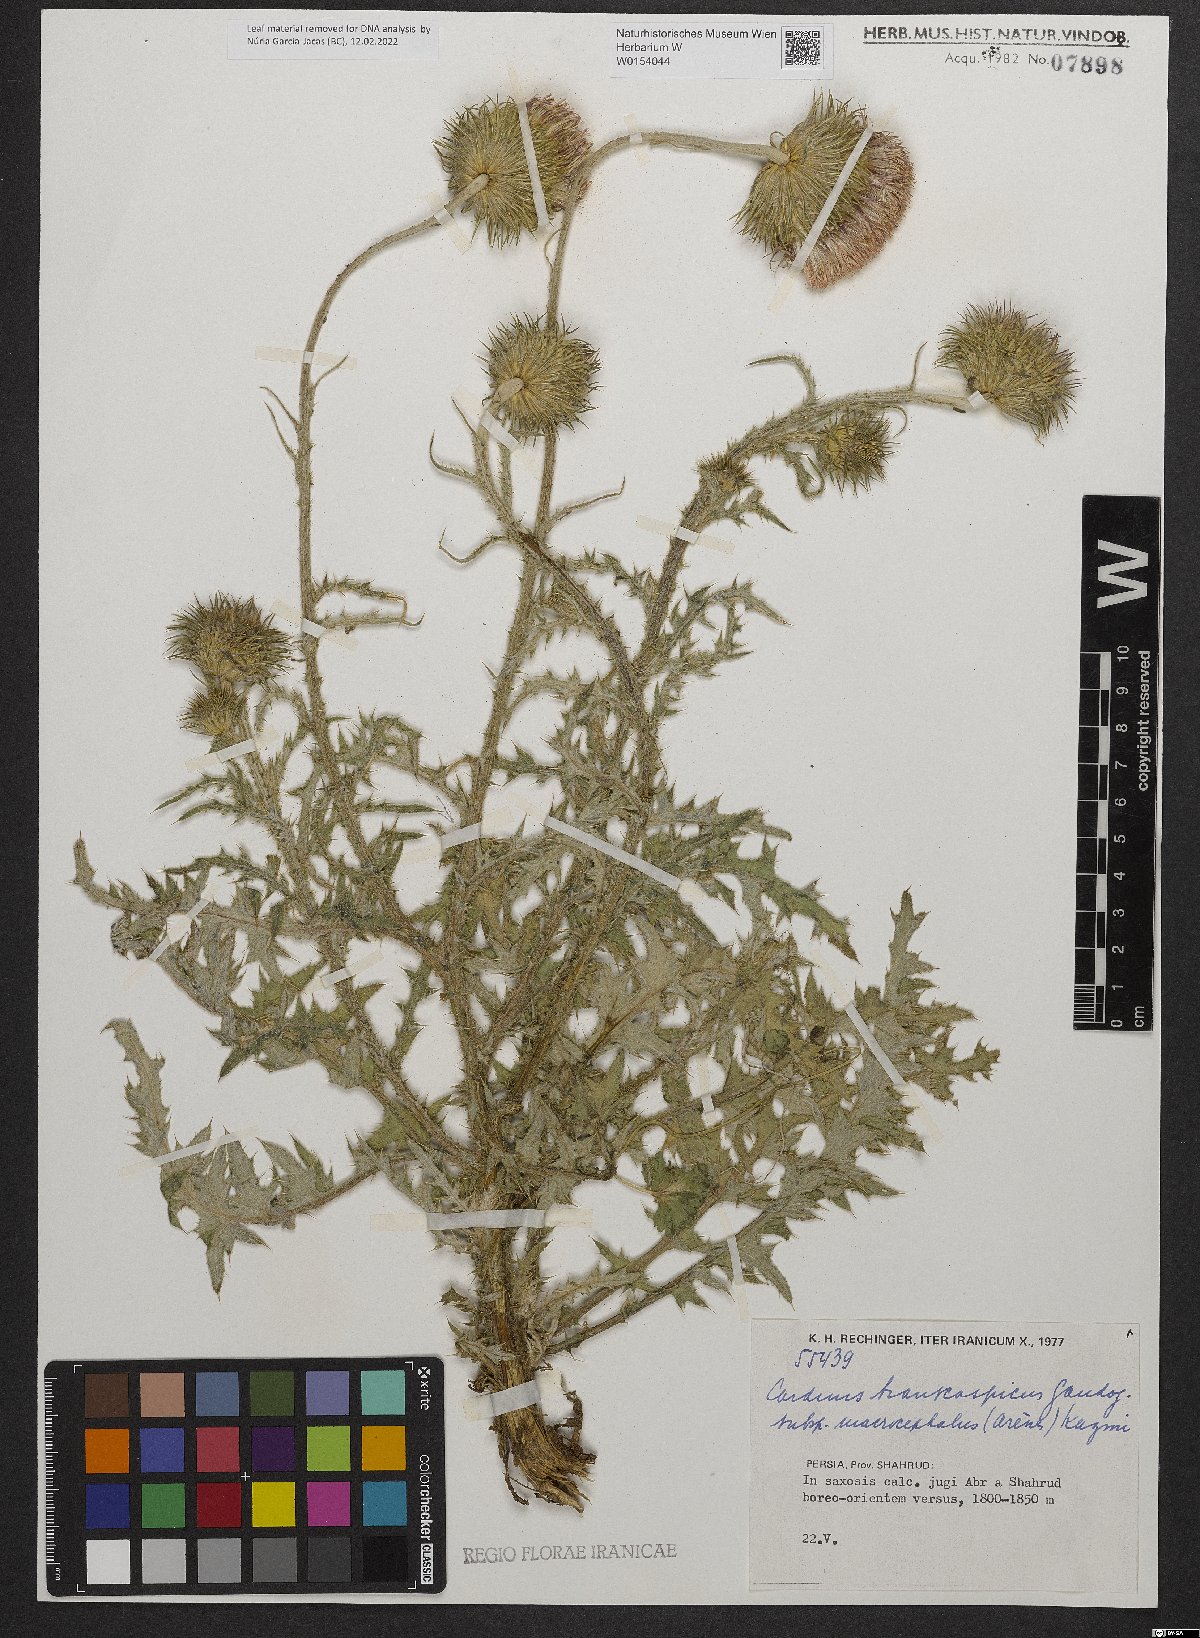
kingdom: Plantae
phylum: Tracheophyta
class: Magnoliopsida
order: Asterales
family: Asteraceae
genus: Carduus
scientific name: Carduus transcaspicus
